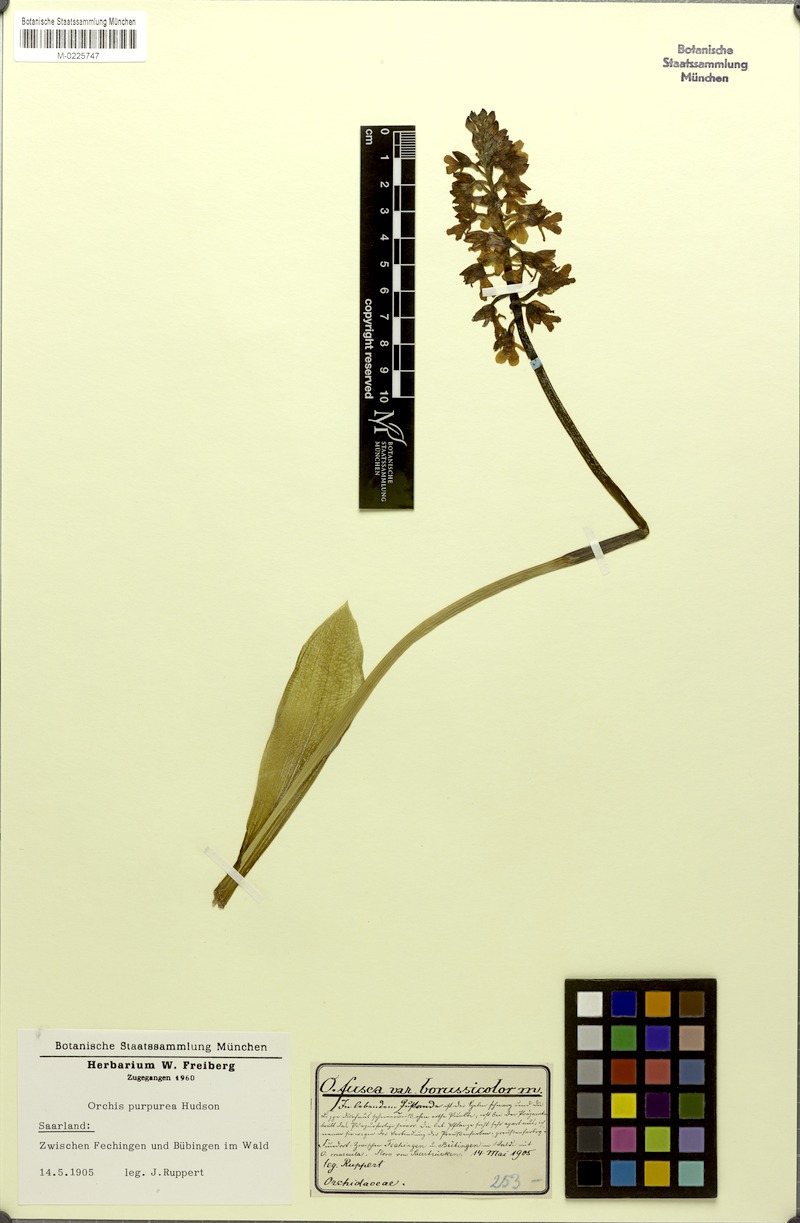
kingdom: Plantae
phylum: Tracheophyta
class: Liliopsida
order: Asparagales
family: Orchidaceae
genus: Orchis
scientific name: Orchis purpurea
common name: Lady orchid
